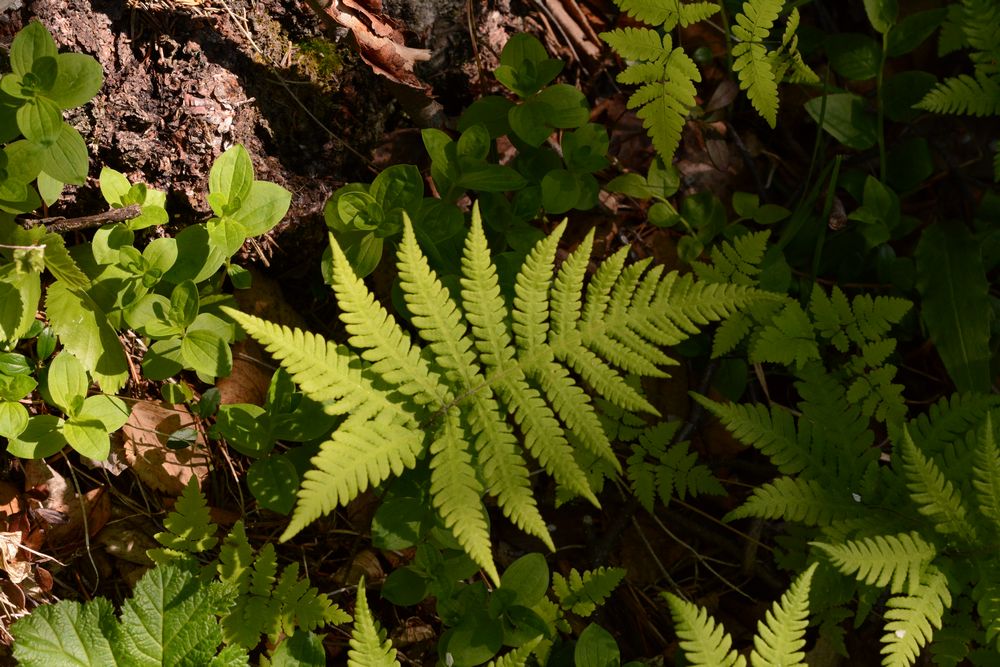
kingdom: Plantae
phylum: Tracheophyta
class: Polypodiopsida
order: Polypodiales
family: Thelypteridaceae
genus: Phegopteris
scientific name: Phegopteris connectilis
